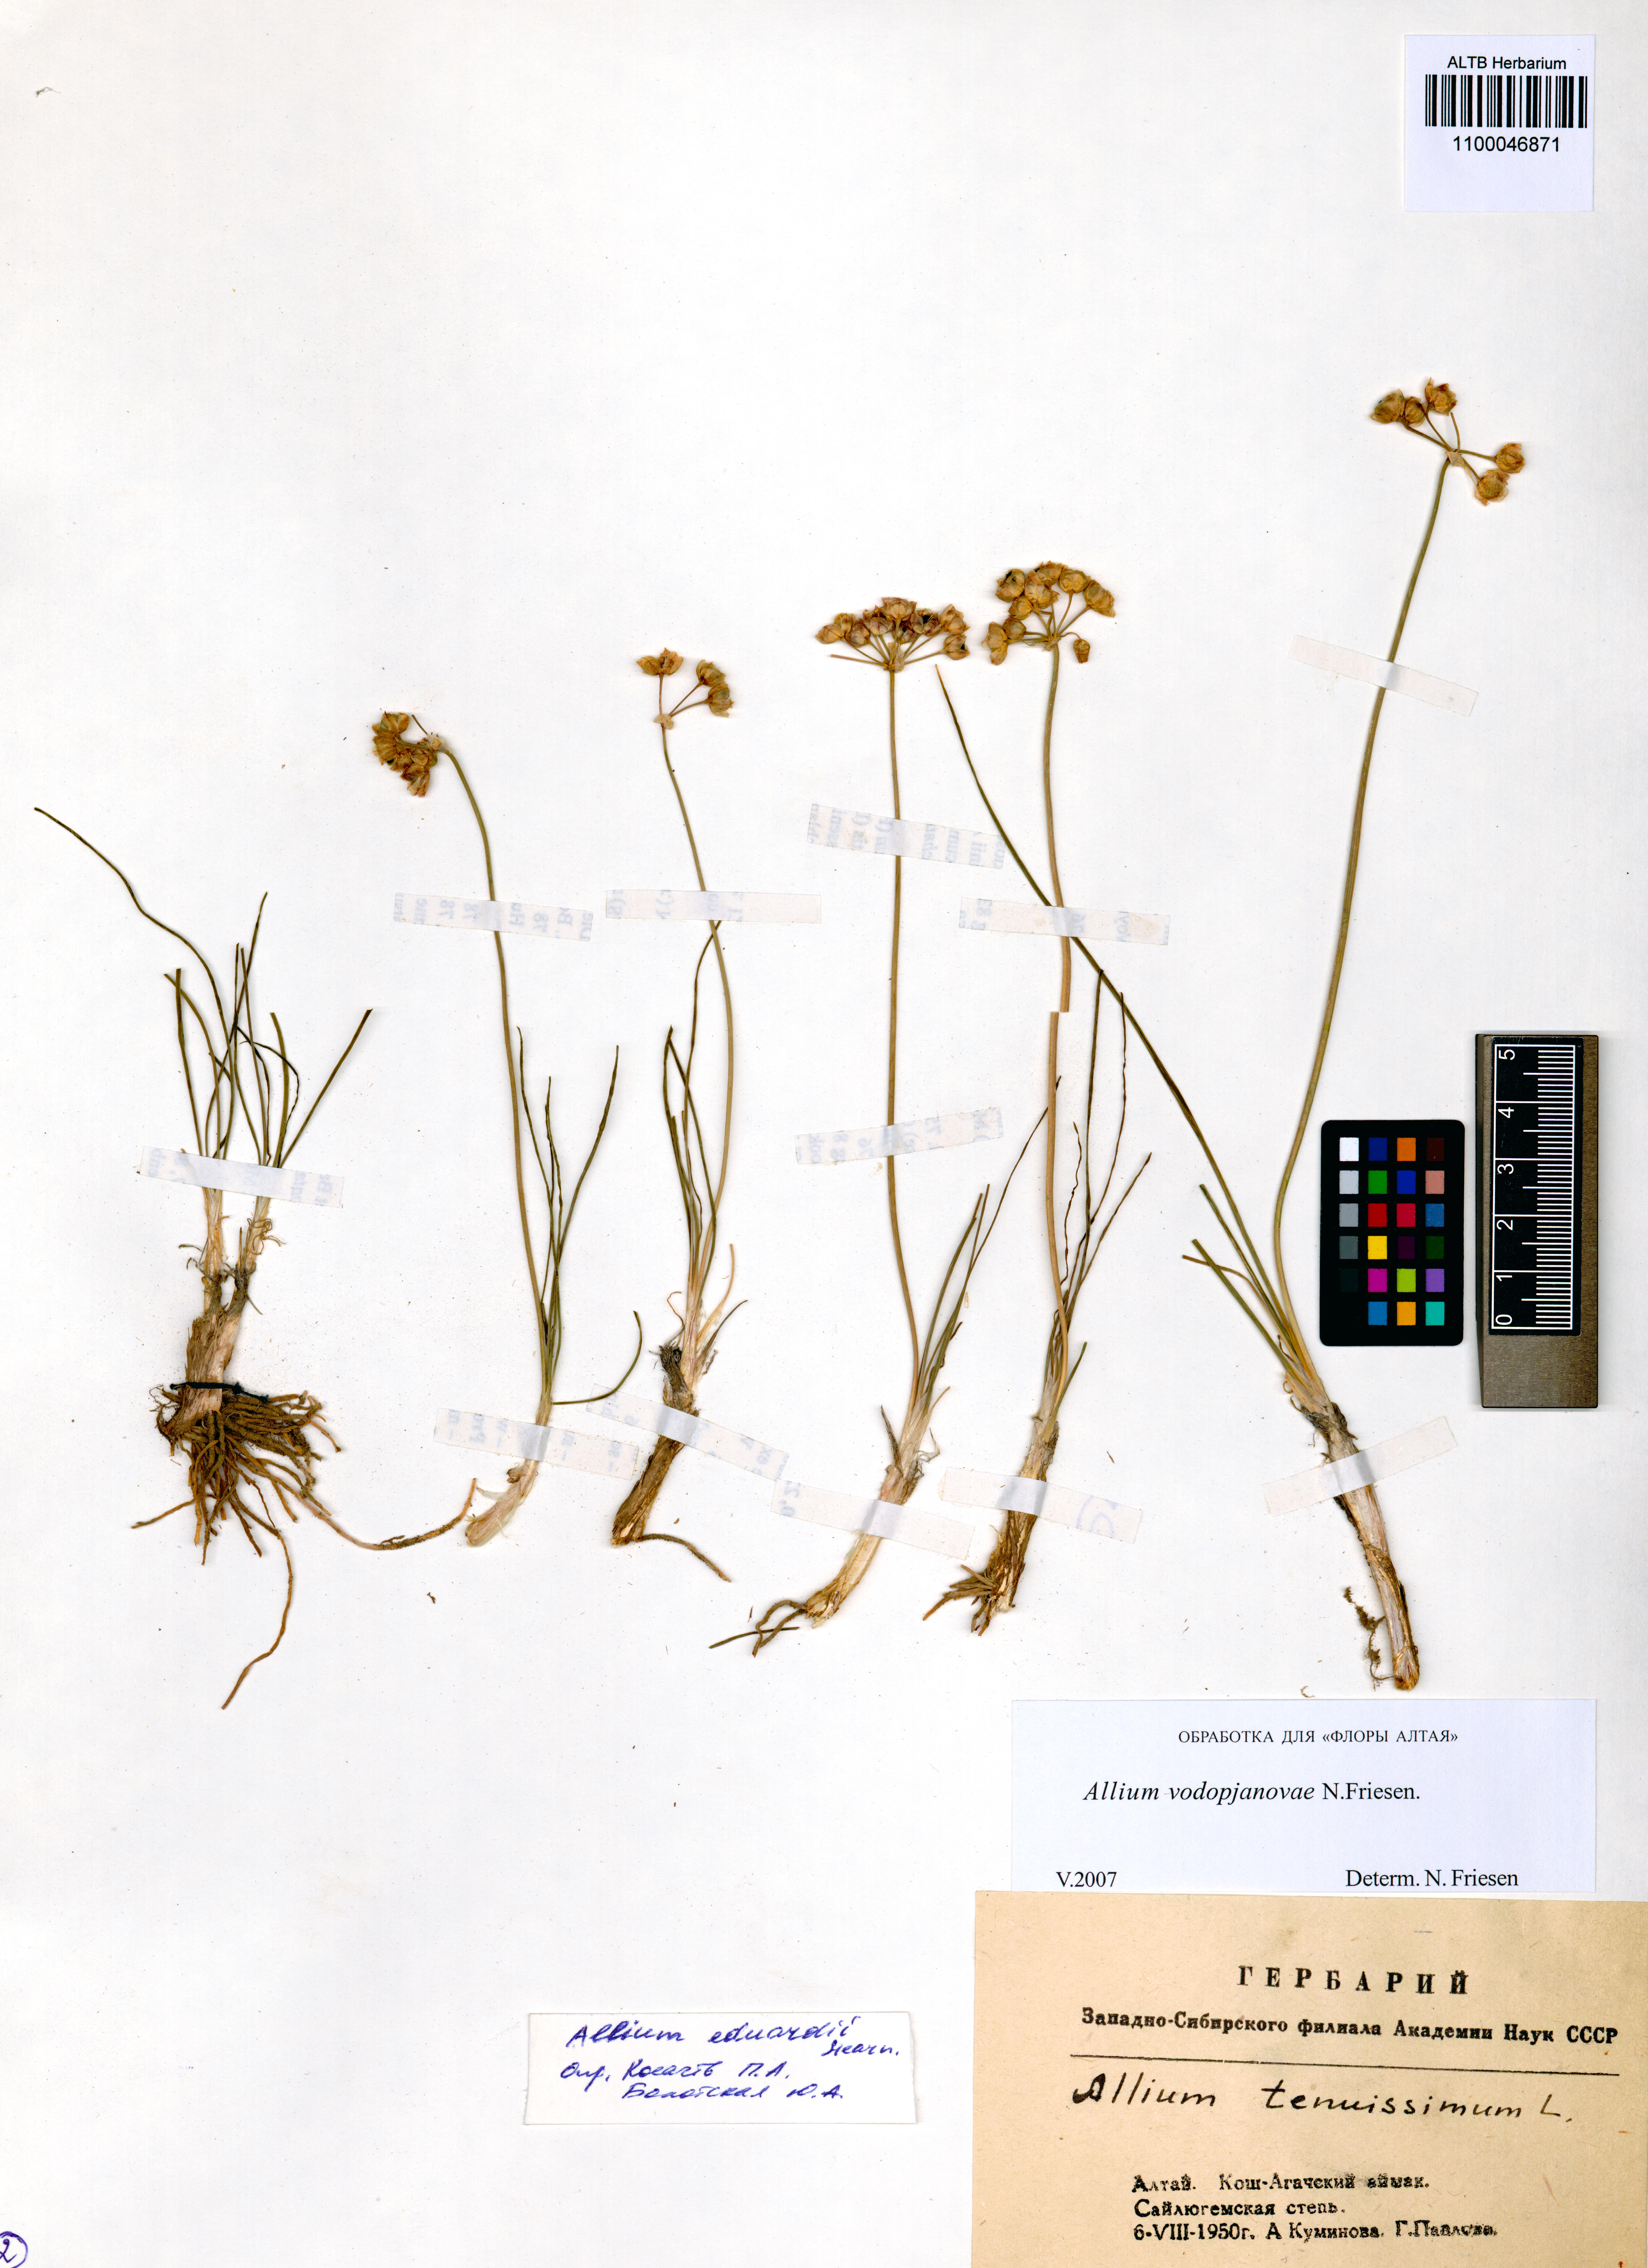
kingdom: Plantae
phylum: Tracheophyta
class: Liliopsida
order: Asparagales
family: Amaryllidaceae
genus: Allium
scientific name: Allium vodopjanovae
